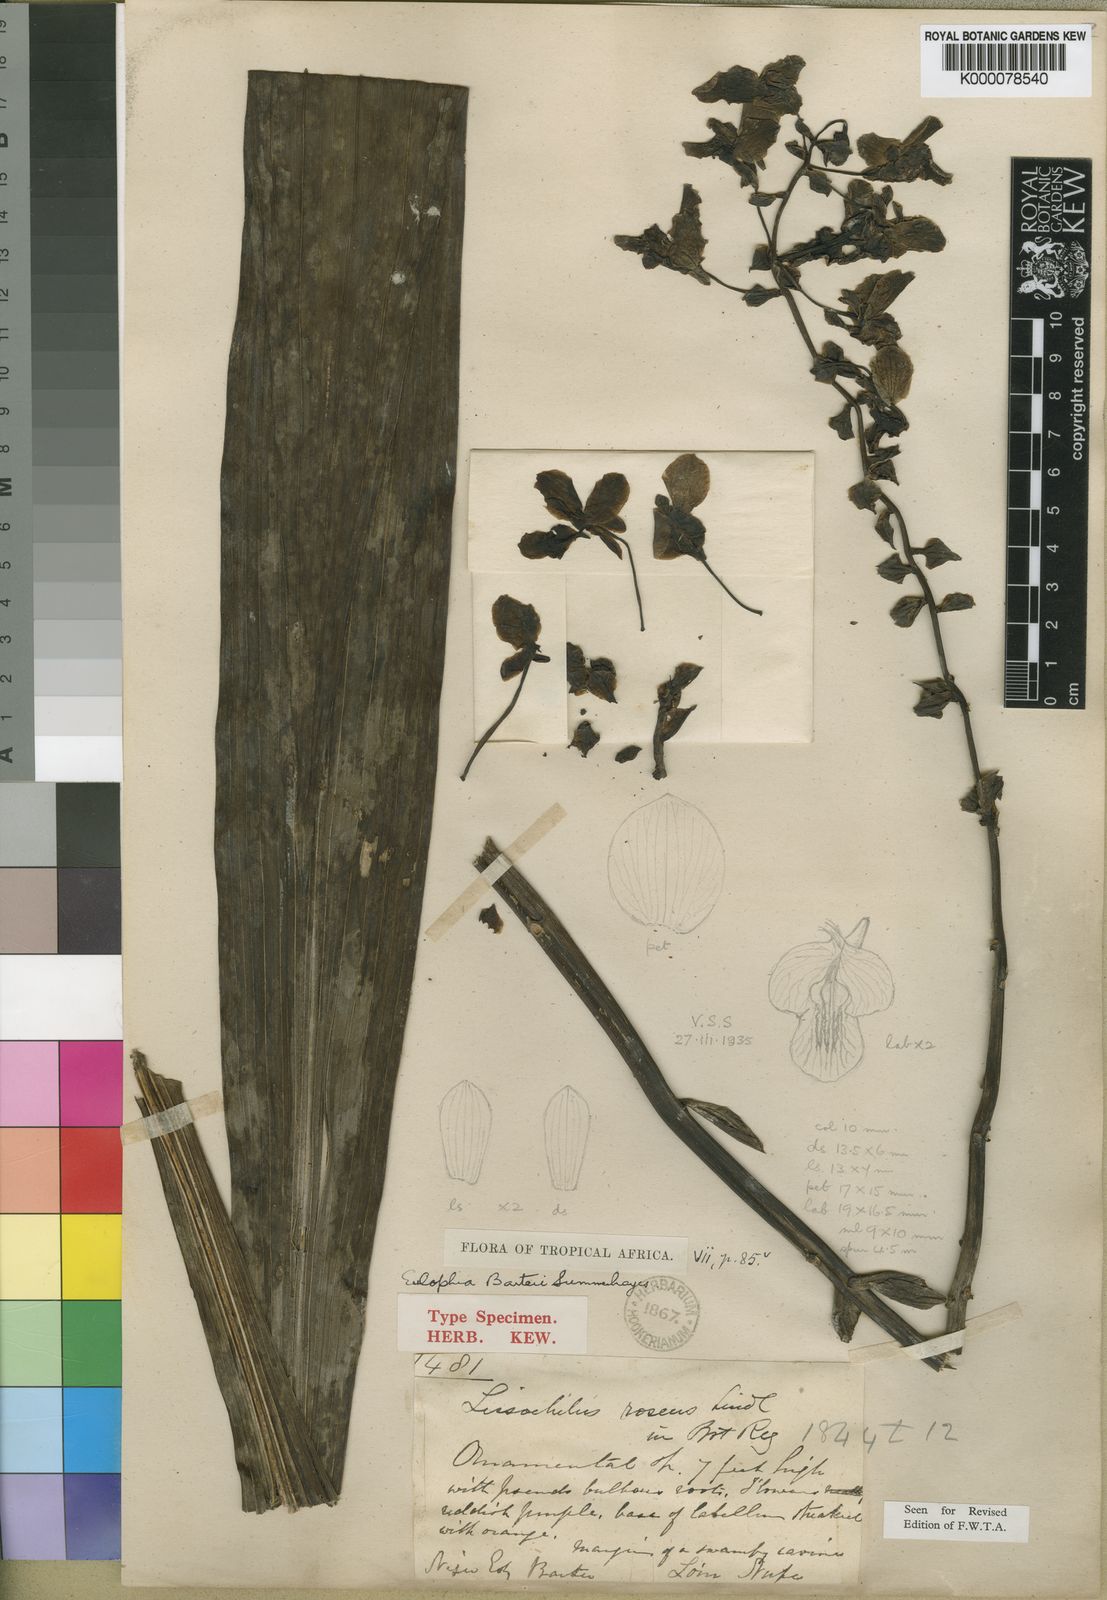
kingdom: Plantae
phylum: Tracheophyta
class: Liliopsida
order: Asparagales
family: Orchidaceae
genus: Eulophia
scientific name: Eulophia barteri
